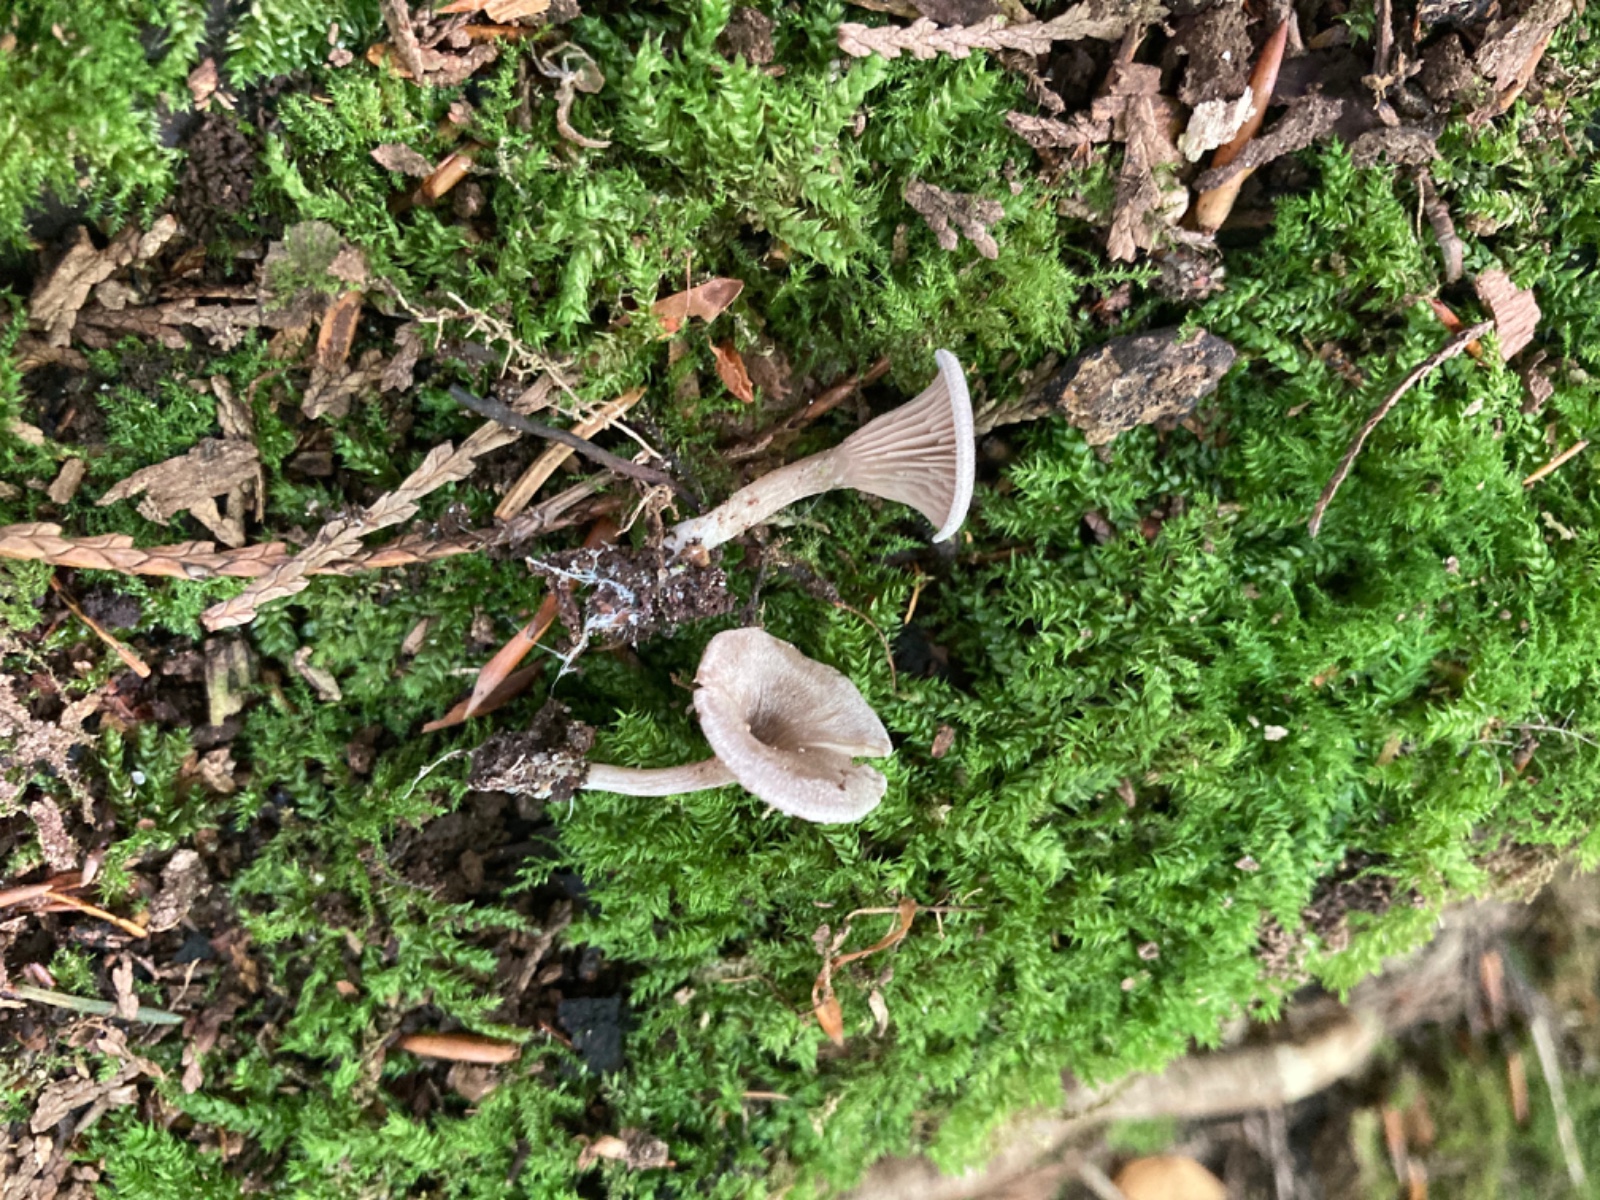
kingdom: Fungi
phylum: Basidiomycota
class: Agaricomycetes
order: Agaricales
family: Entolomataceae
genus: Entoloma
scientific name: Entoloma undatum
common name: bæltet rødblad
